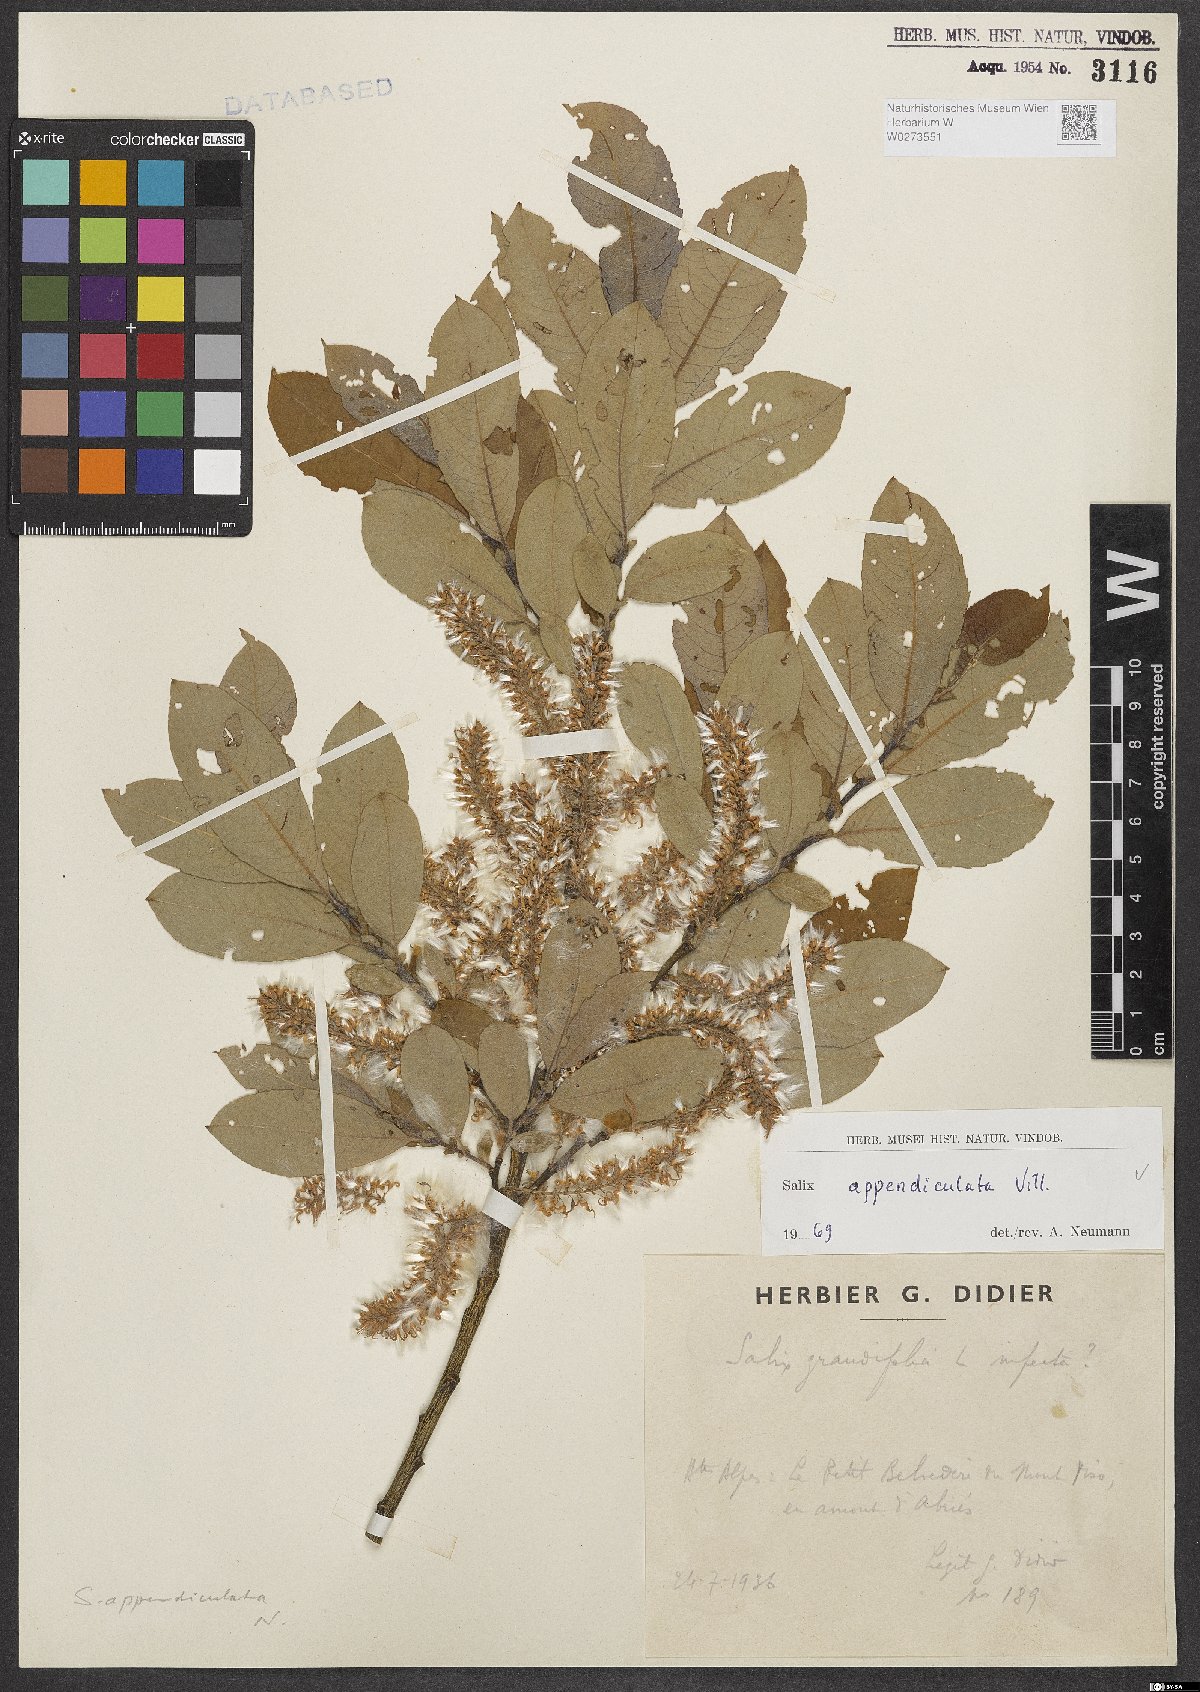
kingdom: Plantae
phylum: Tracheophyta
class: Magnoliopsida
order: Malpighiales
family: Salicaceae
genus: Salix
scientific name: Salix appendiculata
